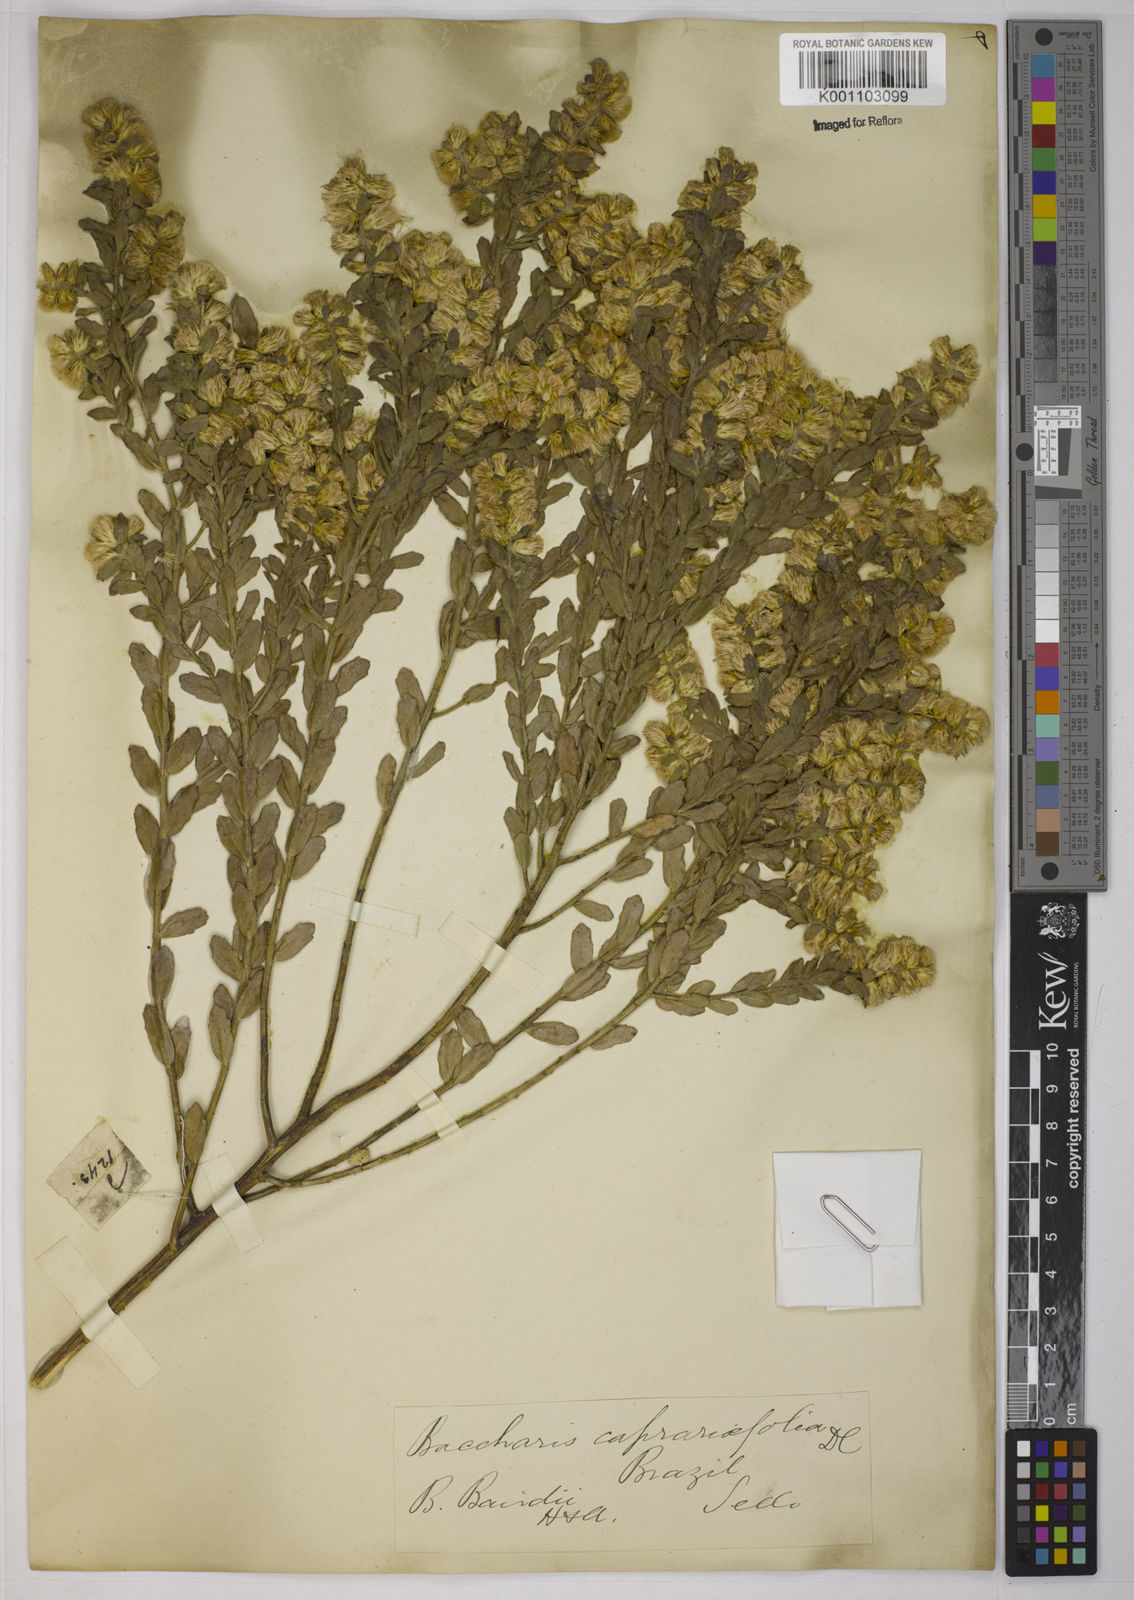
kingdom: Plantae
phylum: Tracheophyta
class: Magnoliopsida
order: Asterales
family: Asteraceae
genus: Baccharis
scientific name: Baccharis caprariifolia
